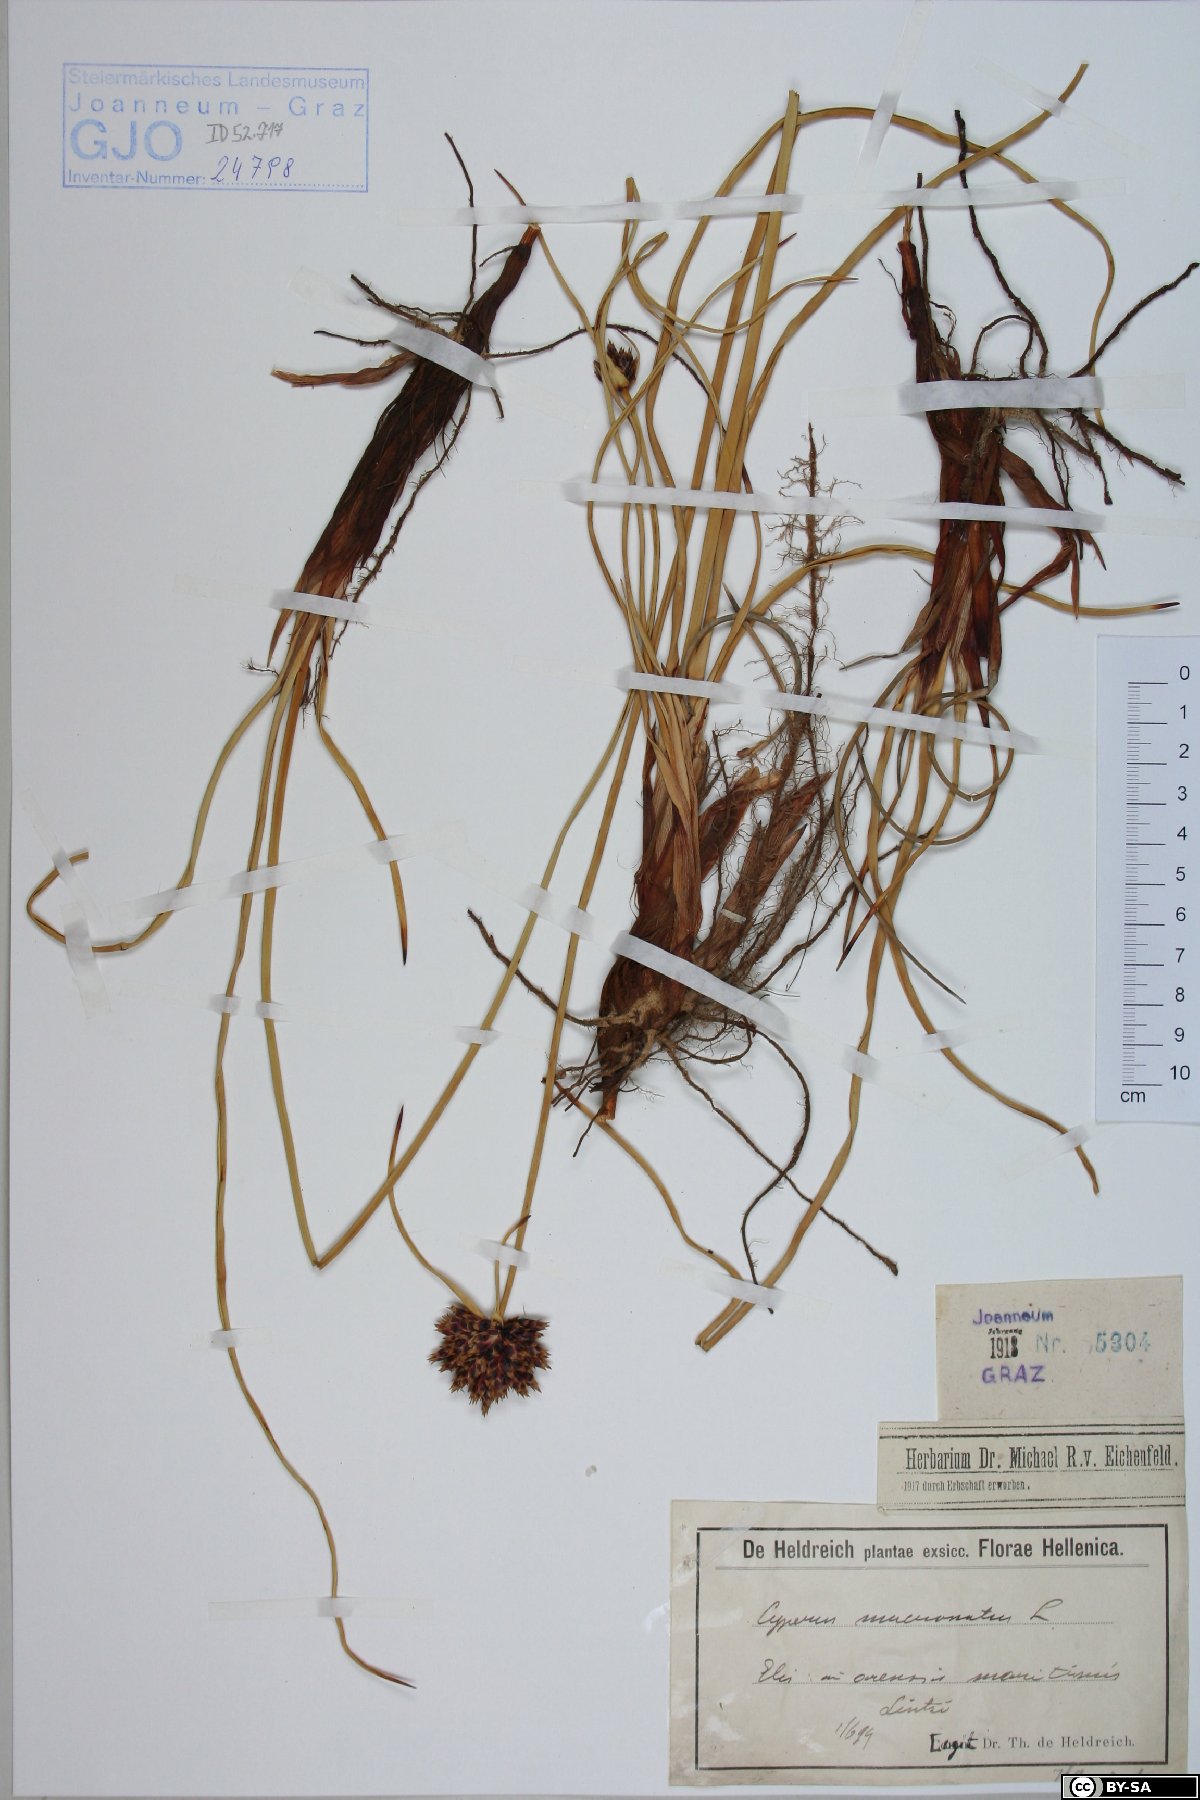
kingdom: Plantae
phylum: Tracheophyta
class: Liliopsida
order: Poales
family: Cyperaceae
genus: Cyperus
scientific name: Cyperus capitatus
